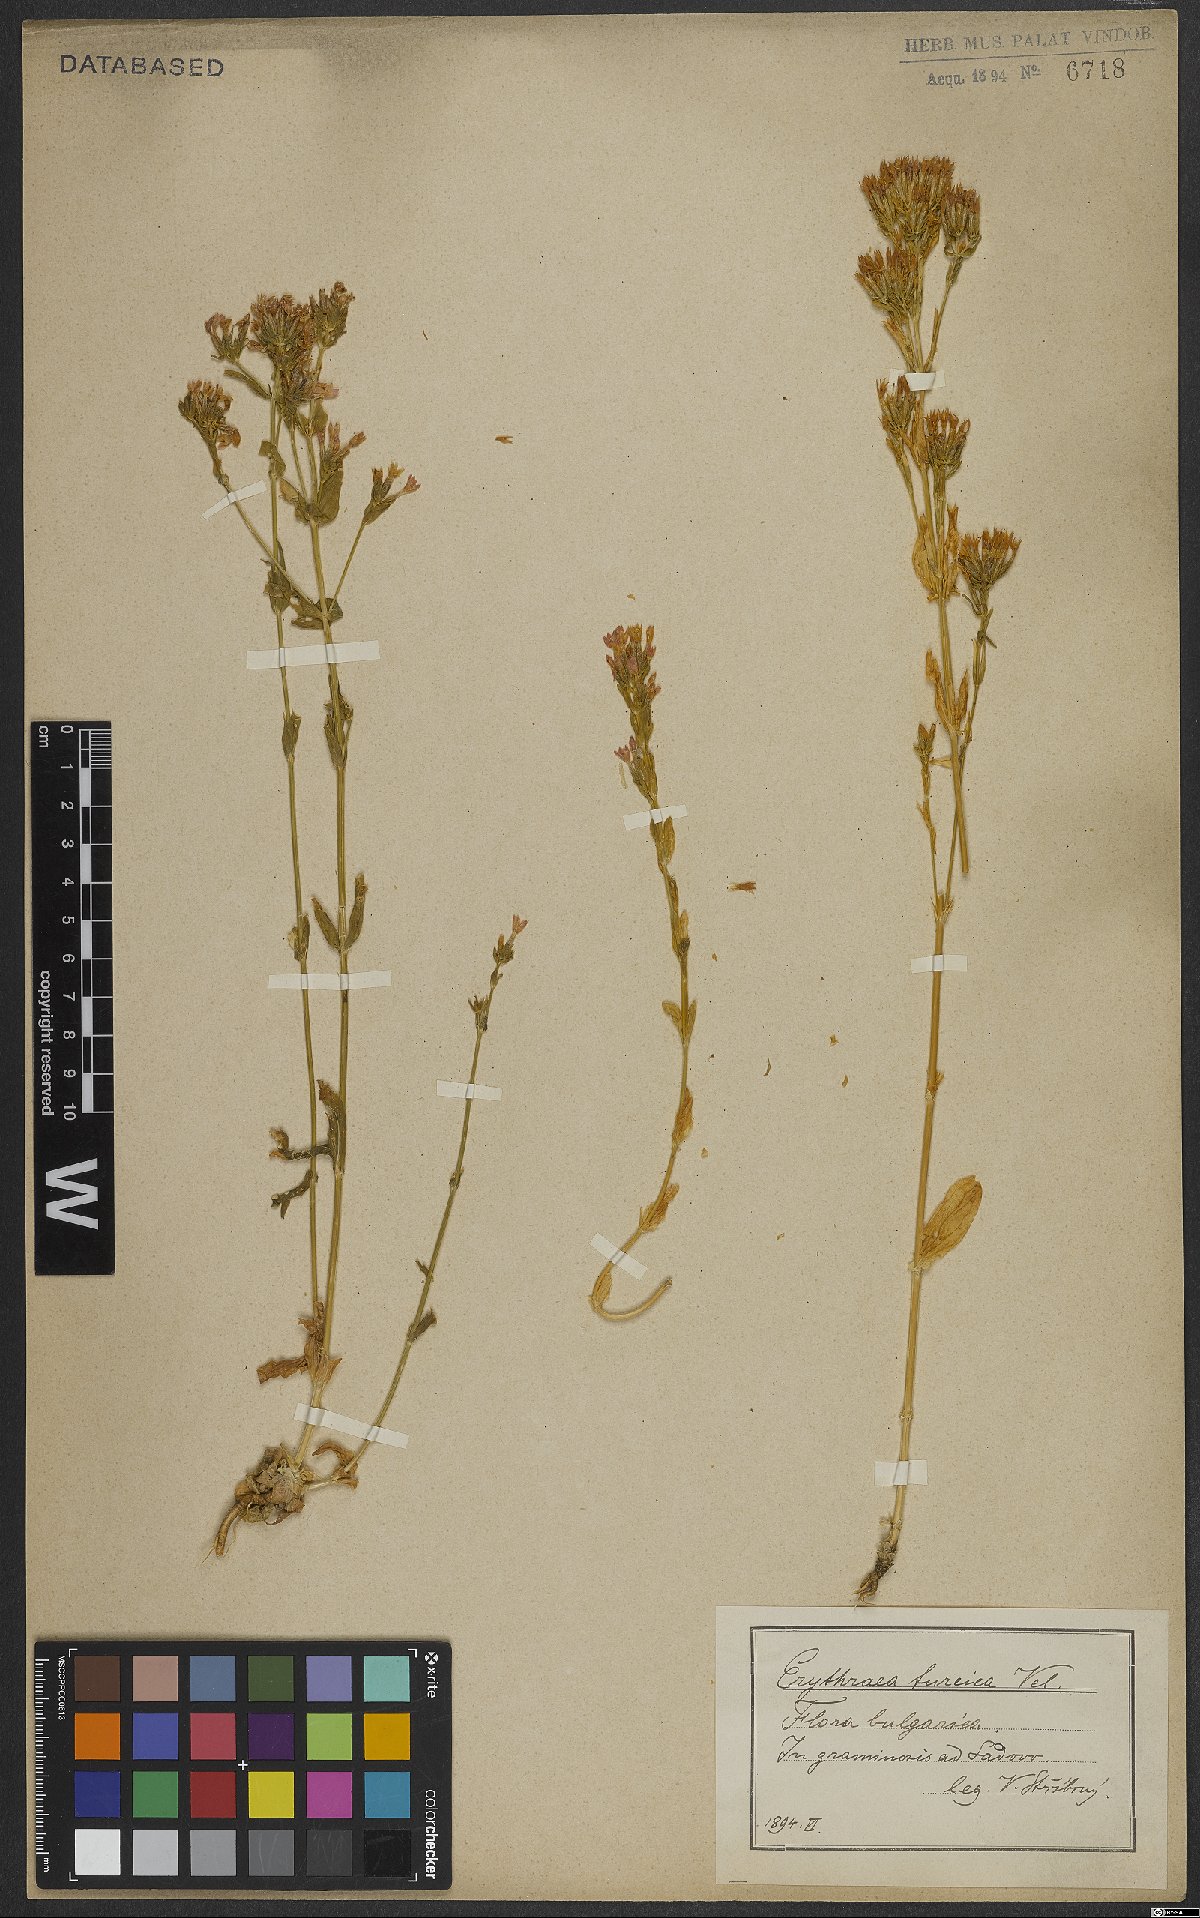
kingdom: Plantae
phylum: Tracheophyta
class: Magnoliopsida
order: Gentianales
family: Gentianaceae
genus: Centaurium
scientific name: Centaurium pulchellum
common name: Lesser centaury
